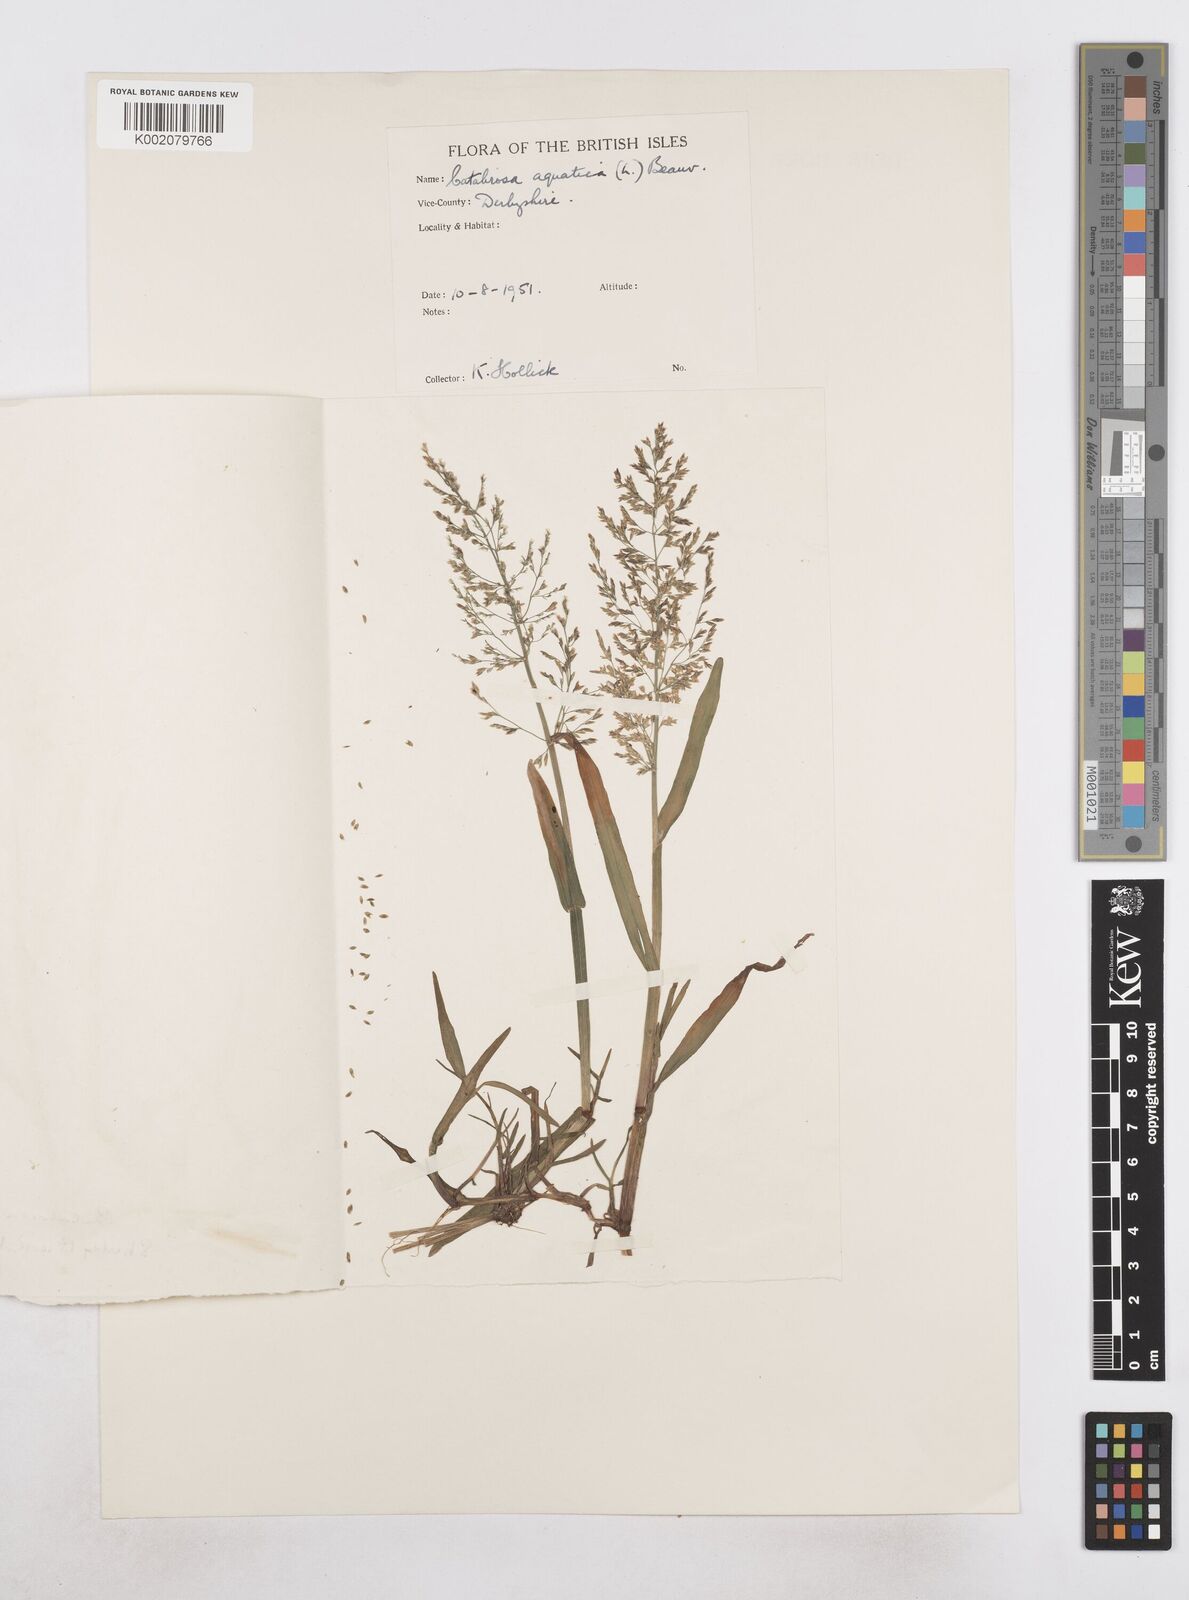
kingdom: Plantae
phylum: Tracheophyta
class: Liliopsida
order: Poales
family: Poaceae
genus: Catabrosa
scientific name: Catabrosa aquatica
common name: Whorl-grass
